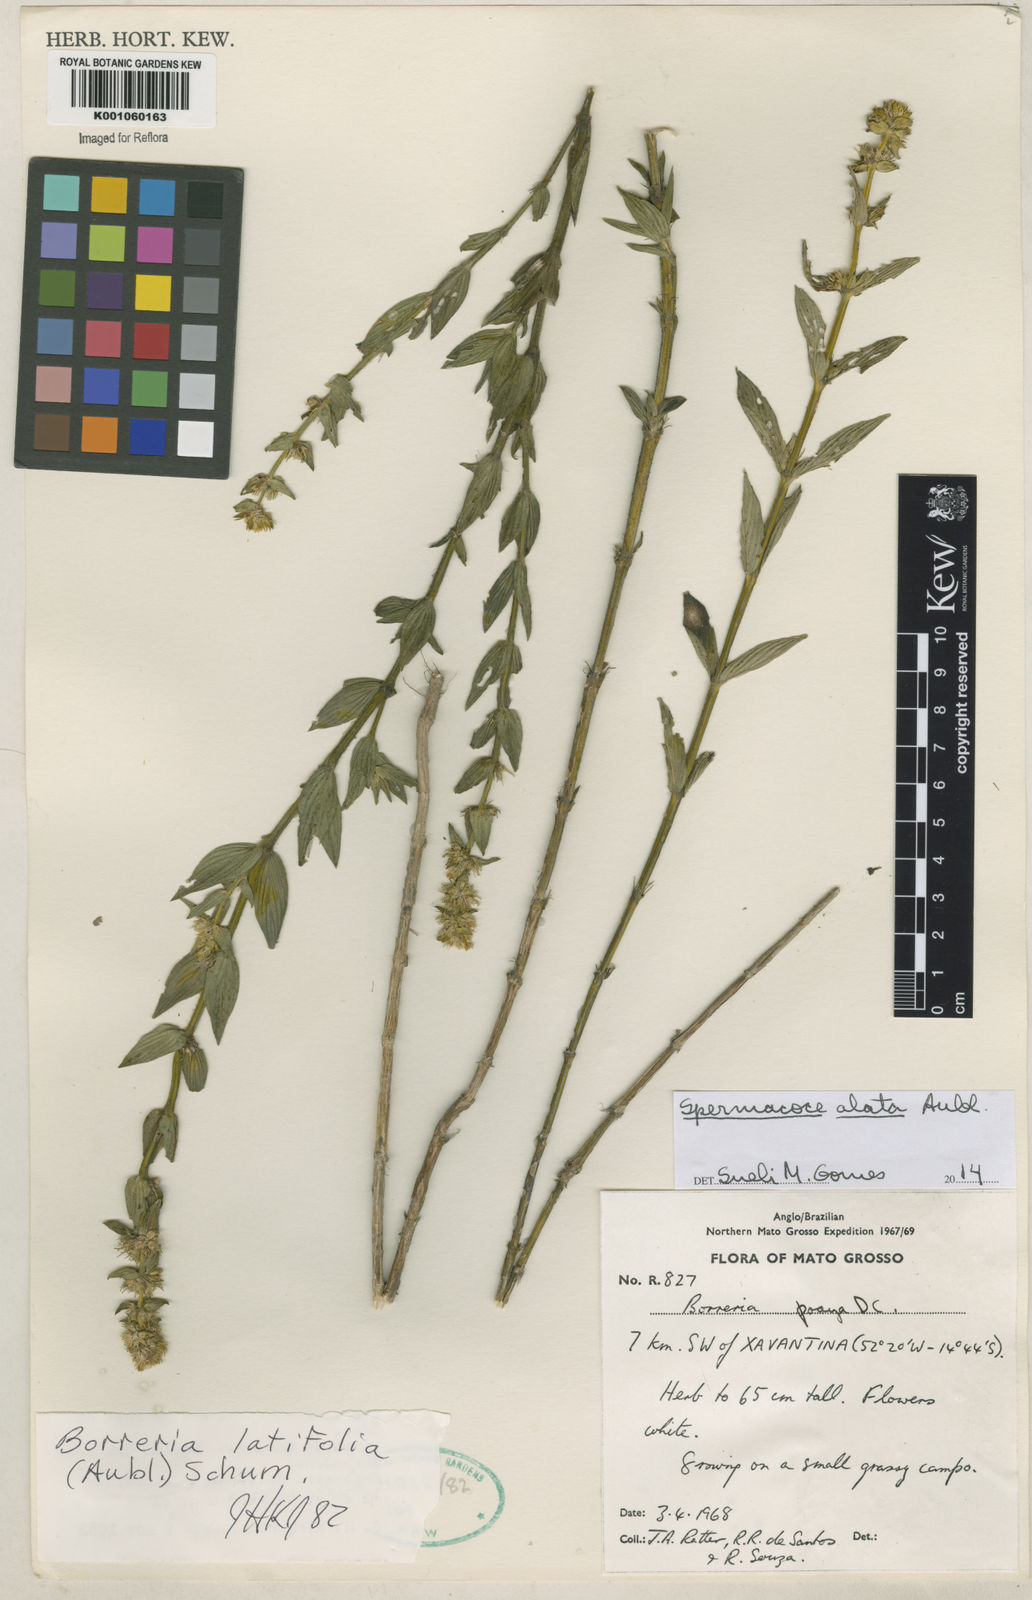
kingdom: Plantae
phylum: Tracheophyta
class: Magnoliopsida
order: Gentianales
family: Rubiaceae
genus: Spermacoce
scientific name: Spermacoce
